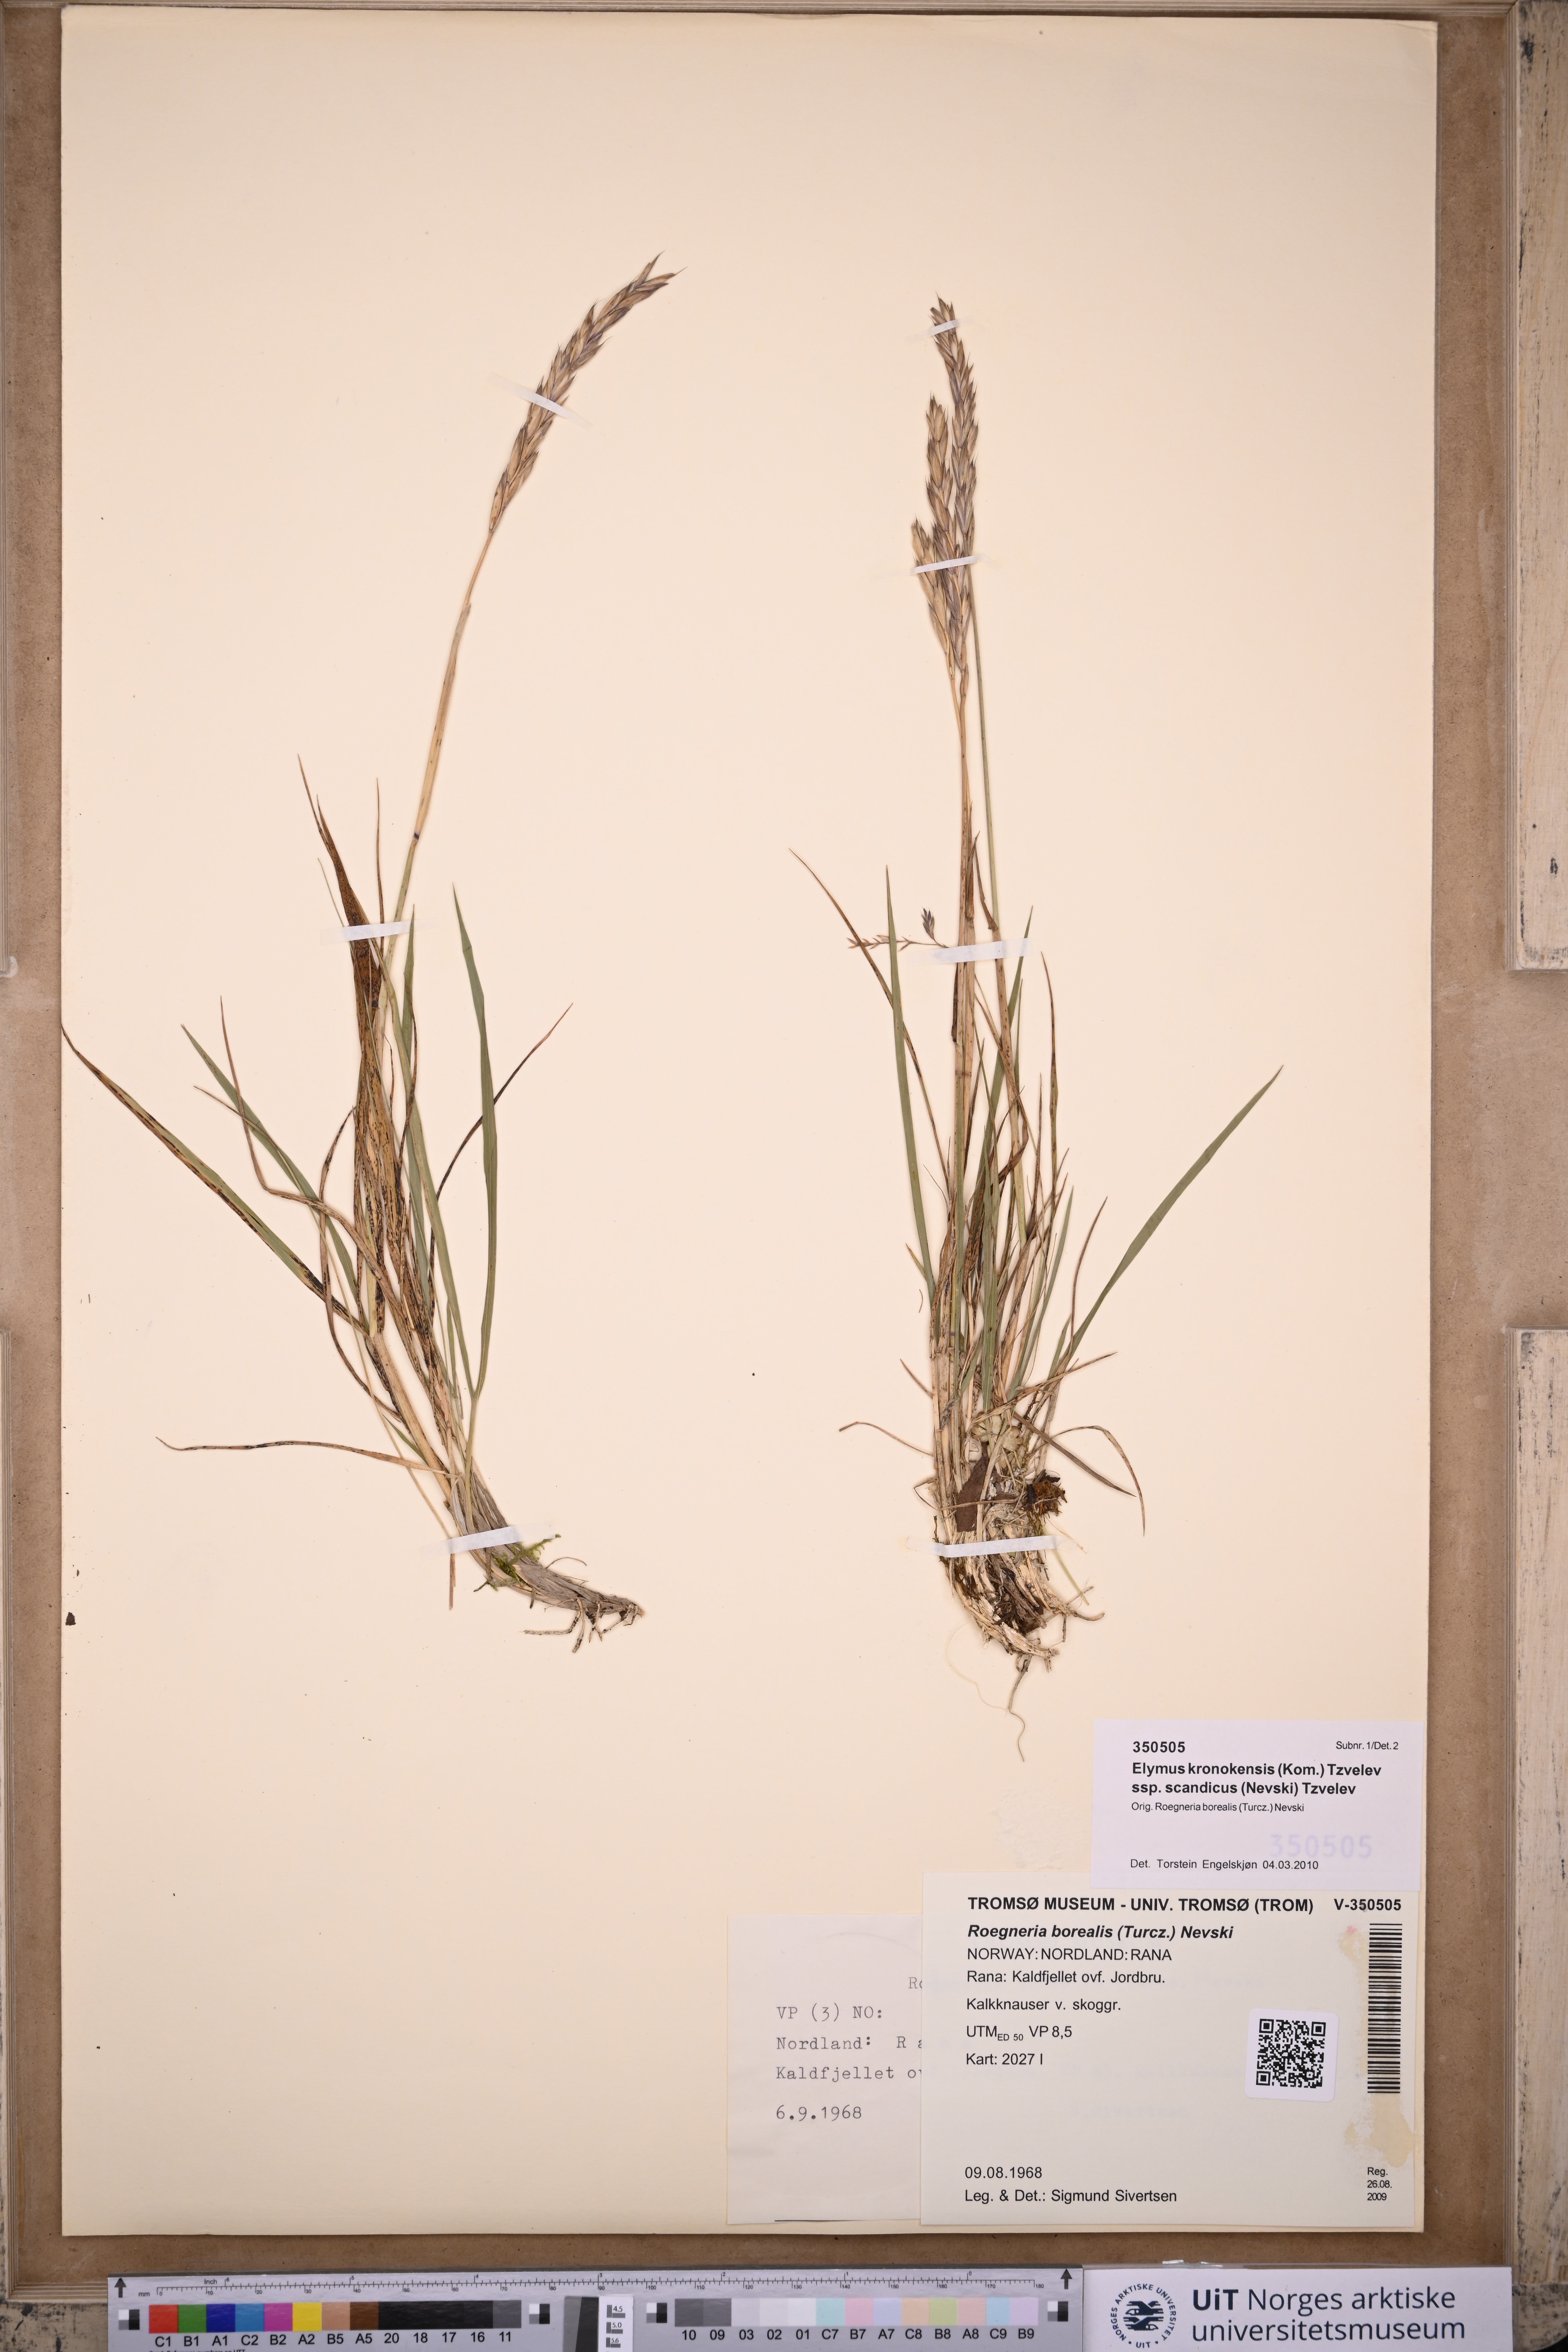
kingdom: Plantae
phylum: Tracheophyta
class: Liliopsida
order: Poales
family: Poaceae
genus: Elymus
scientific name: Elymus macrourus
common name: Northern wheatgrass
